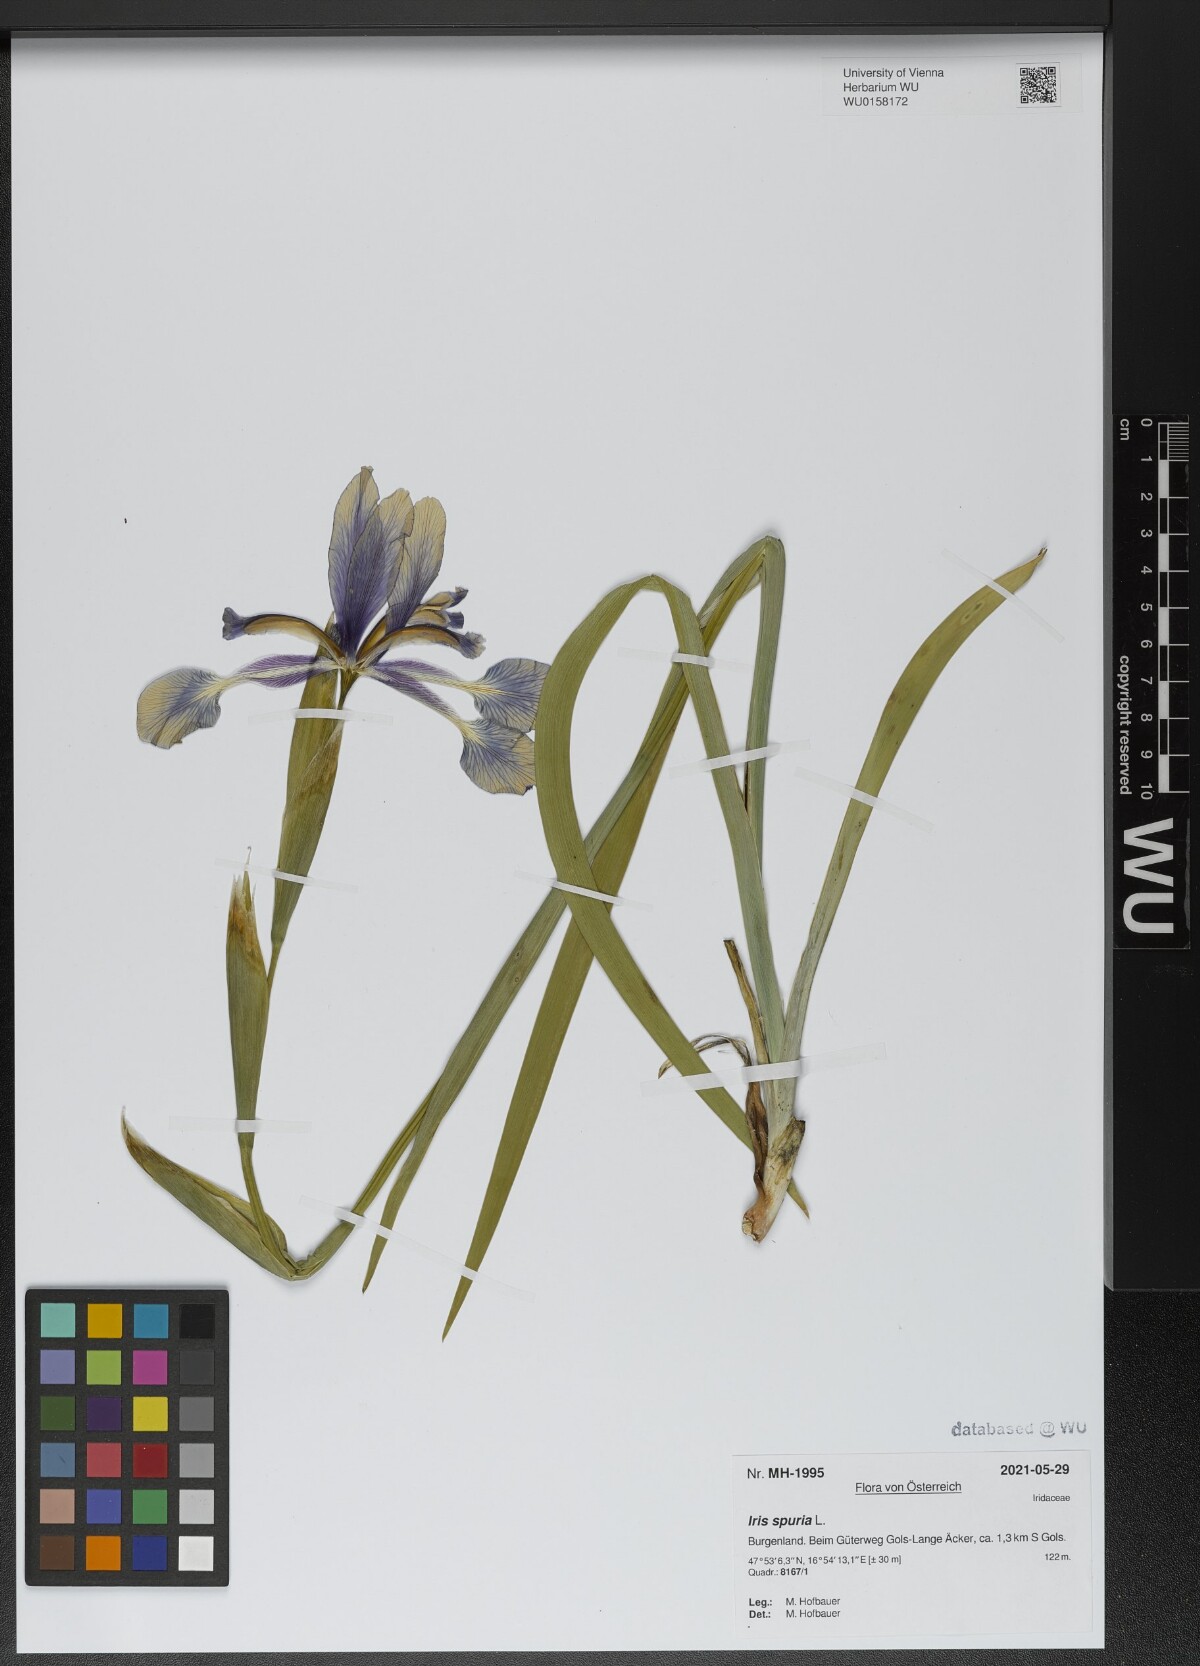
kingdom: Plantae
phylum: Tracheophyta
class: Liliopsida
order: Asparagales
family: Iridaceae
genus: Iris
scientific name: Iris spuria
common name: Blue iris
